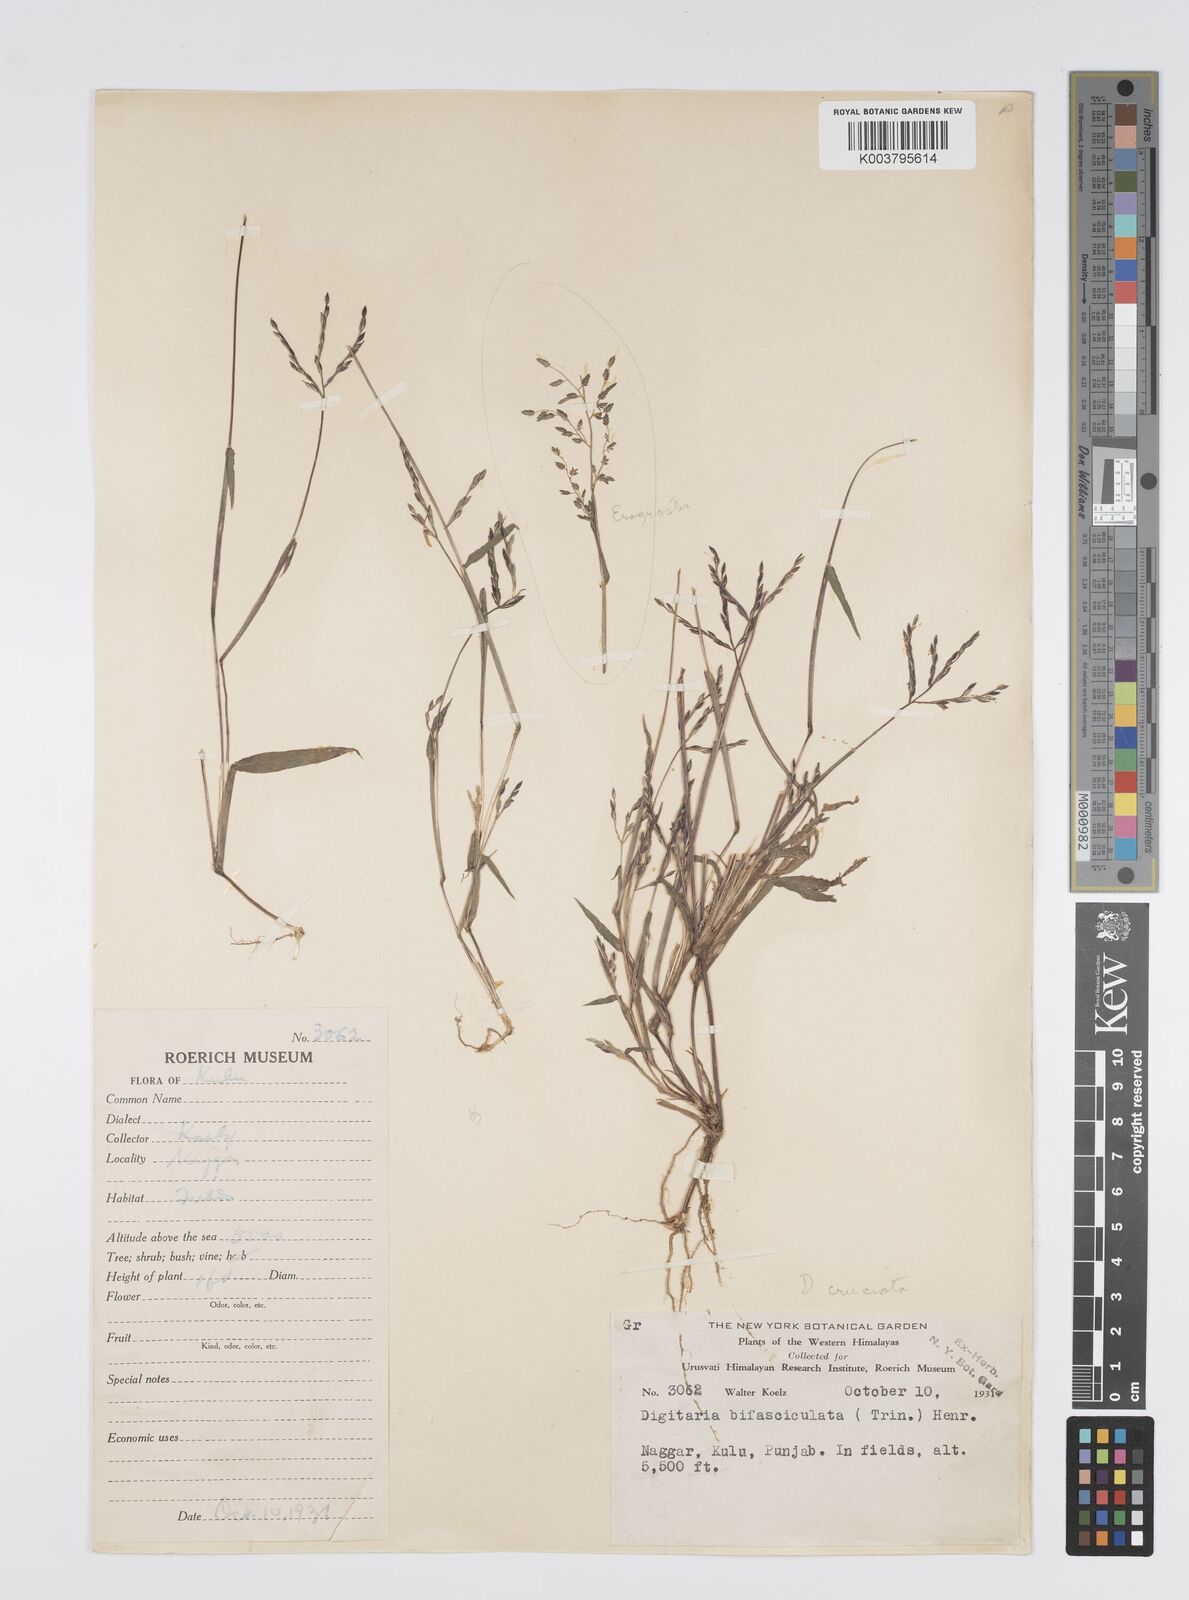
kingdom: Plantae
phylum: Tracheophyta
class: Liliopsida
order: Poales
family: Poaceae
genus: Digitaria
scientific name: Digitaria sanguinalis
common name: Hairy crabgrass
